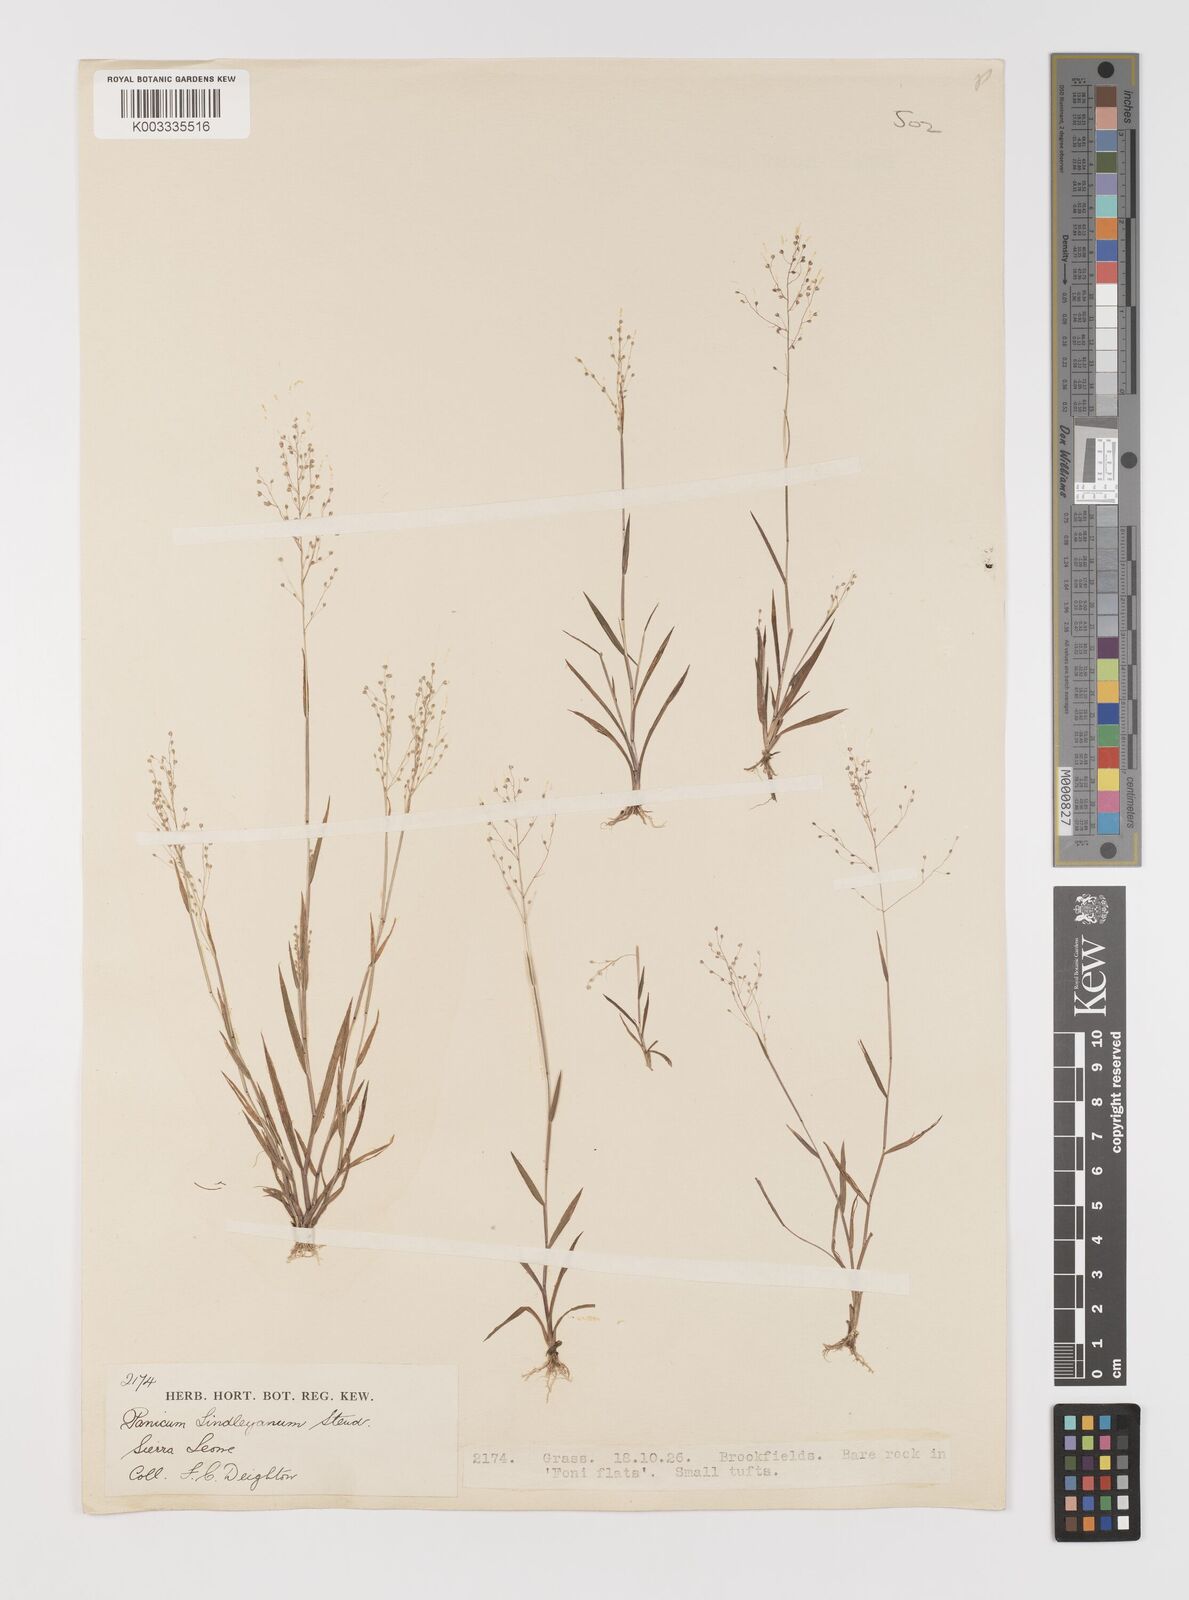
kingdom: Plantae
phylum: Tracheophyta
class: Liliopsida
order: Poales
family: Poaceae
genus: Trichanthecium
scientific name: Trichanthecium tenellum
